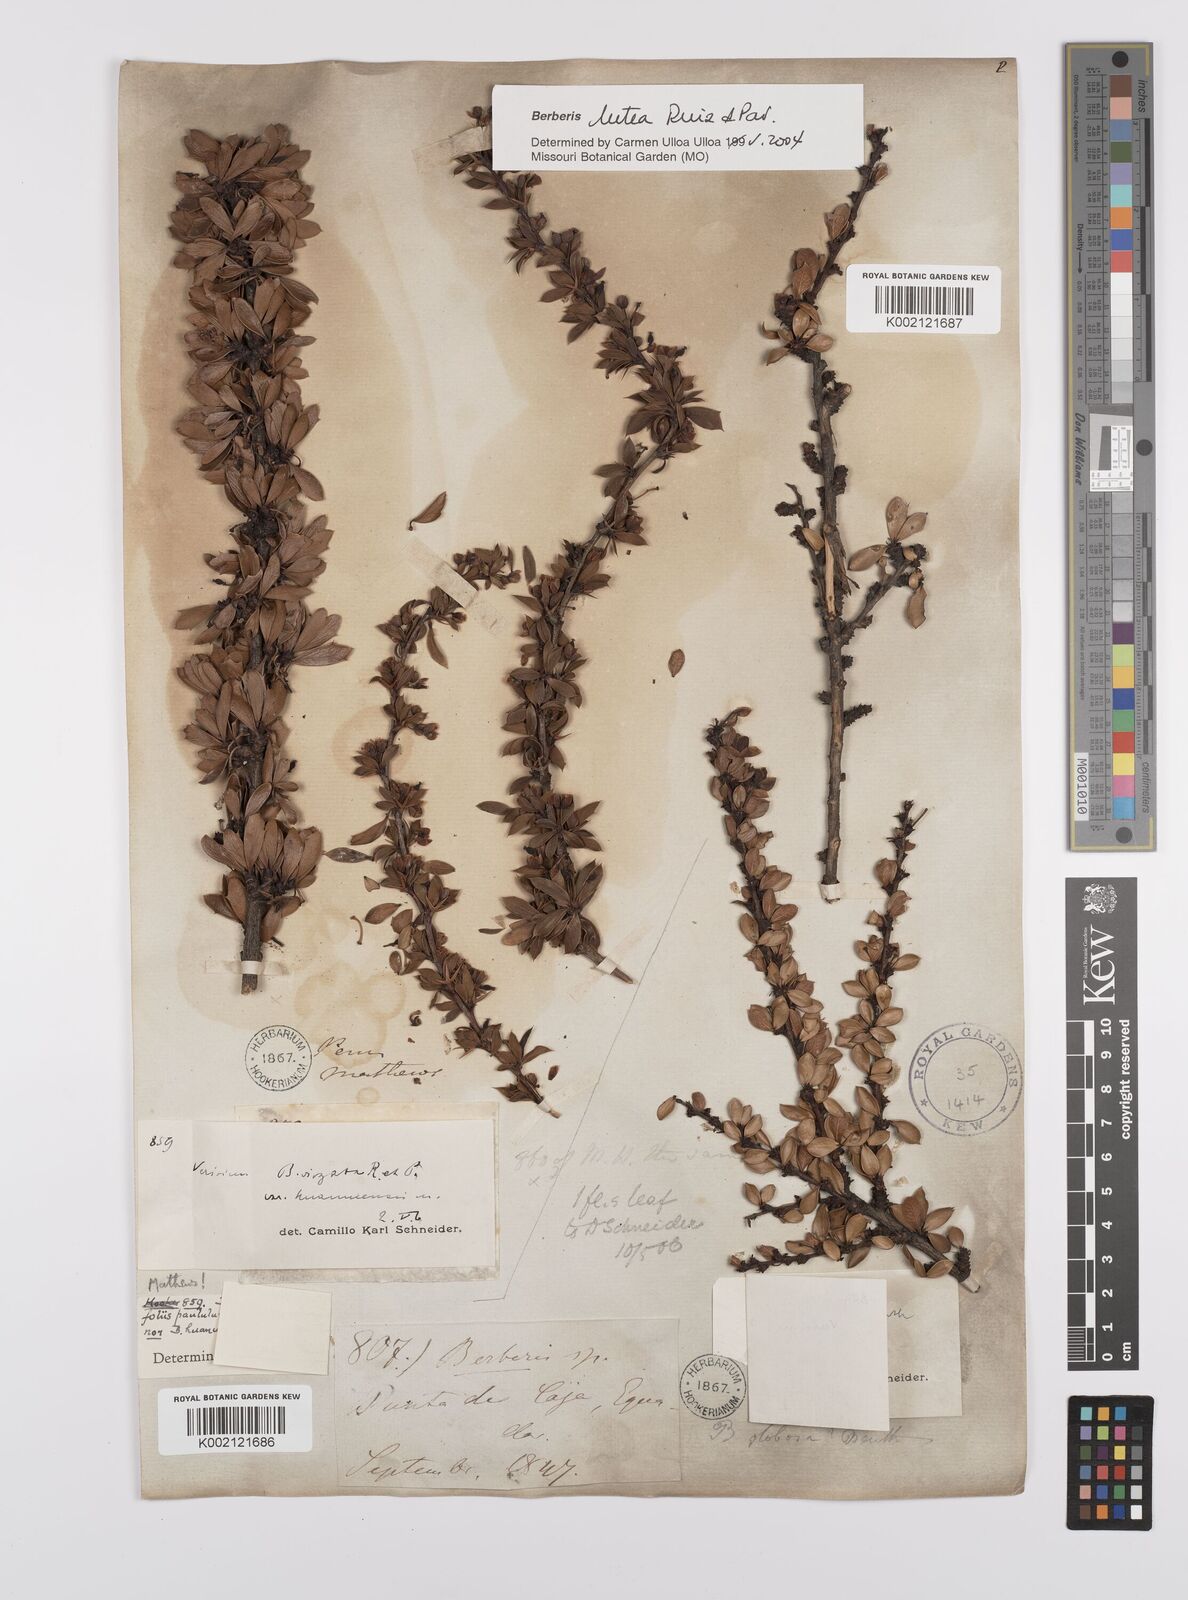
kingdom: Plantae
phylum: Tracheophyta
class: Magnoliopsida
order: Ranunculales
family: Berberidaceae
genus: Berberis
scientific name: Berberis boliviana
